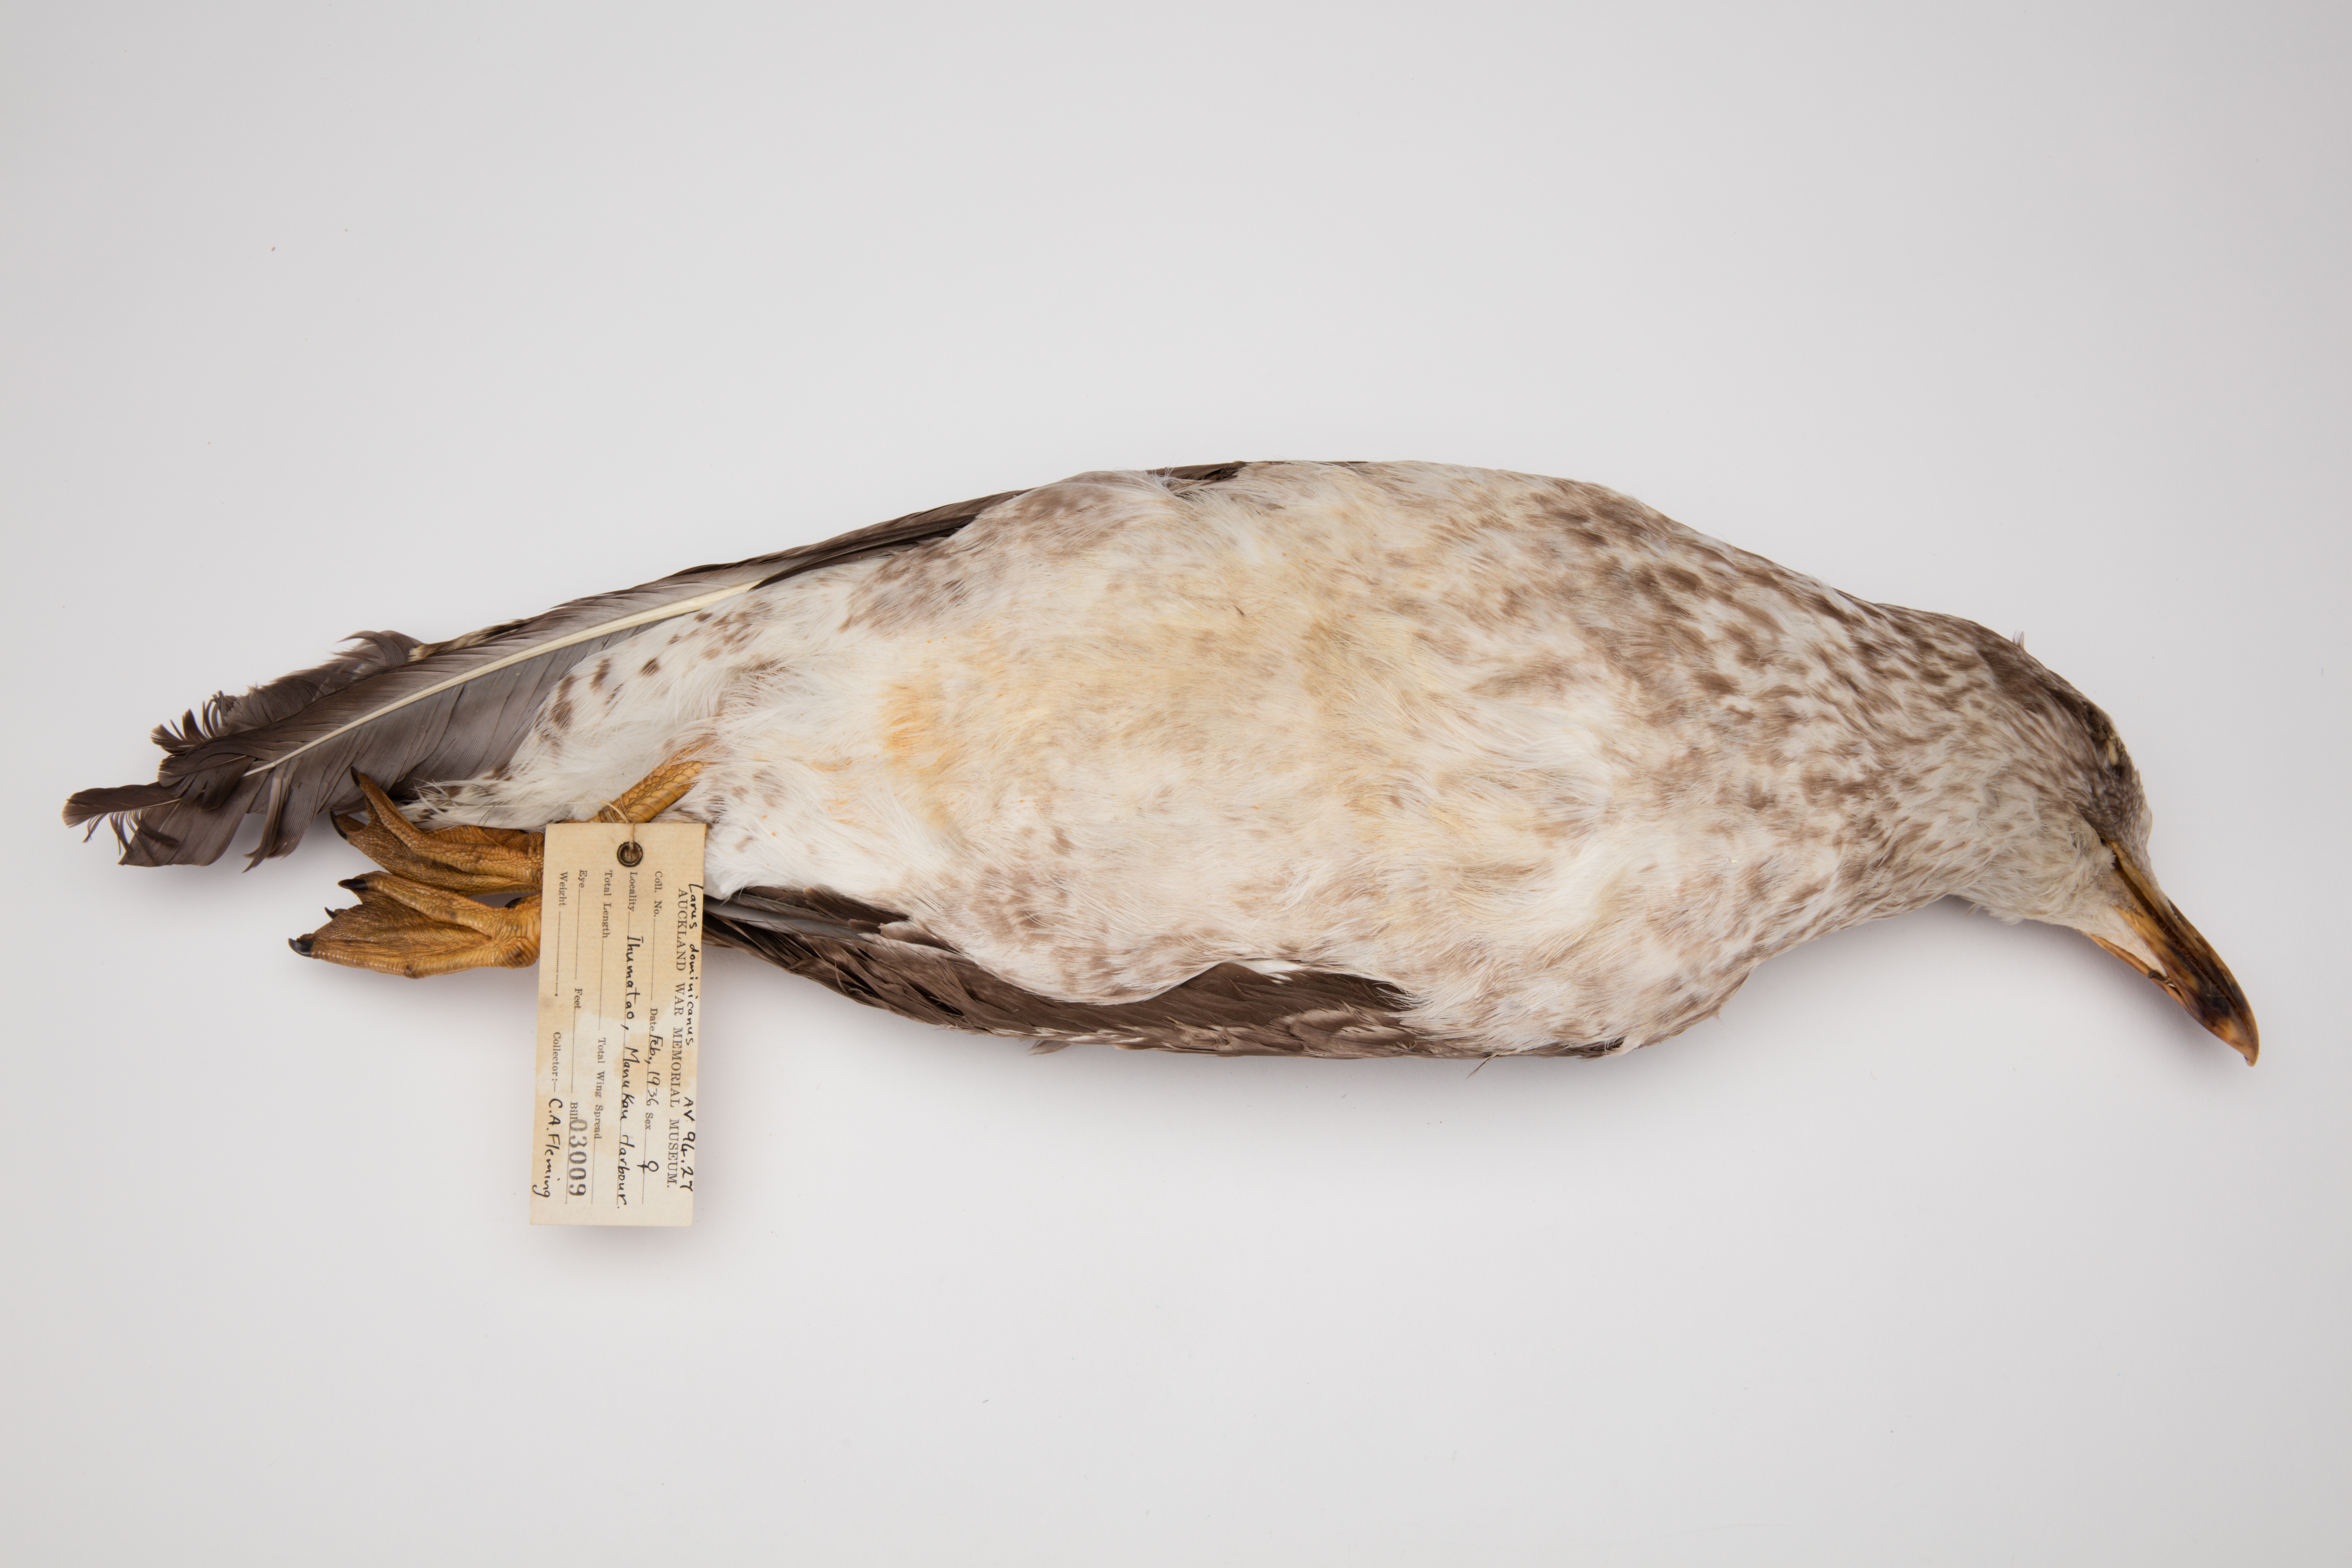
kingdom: Animalia
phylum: Chordata
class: Aves
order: Charadriiformes
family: Laridae
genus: Larus
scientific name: Larus dominicanus
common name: Kelp gull
